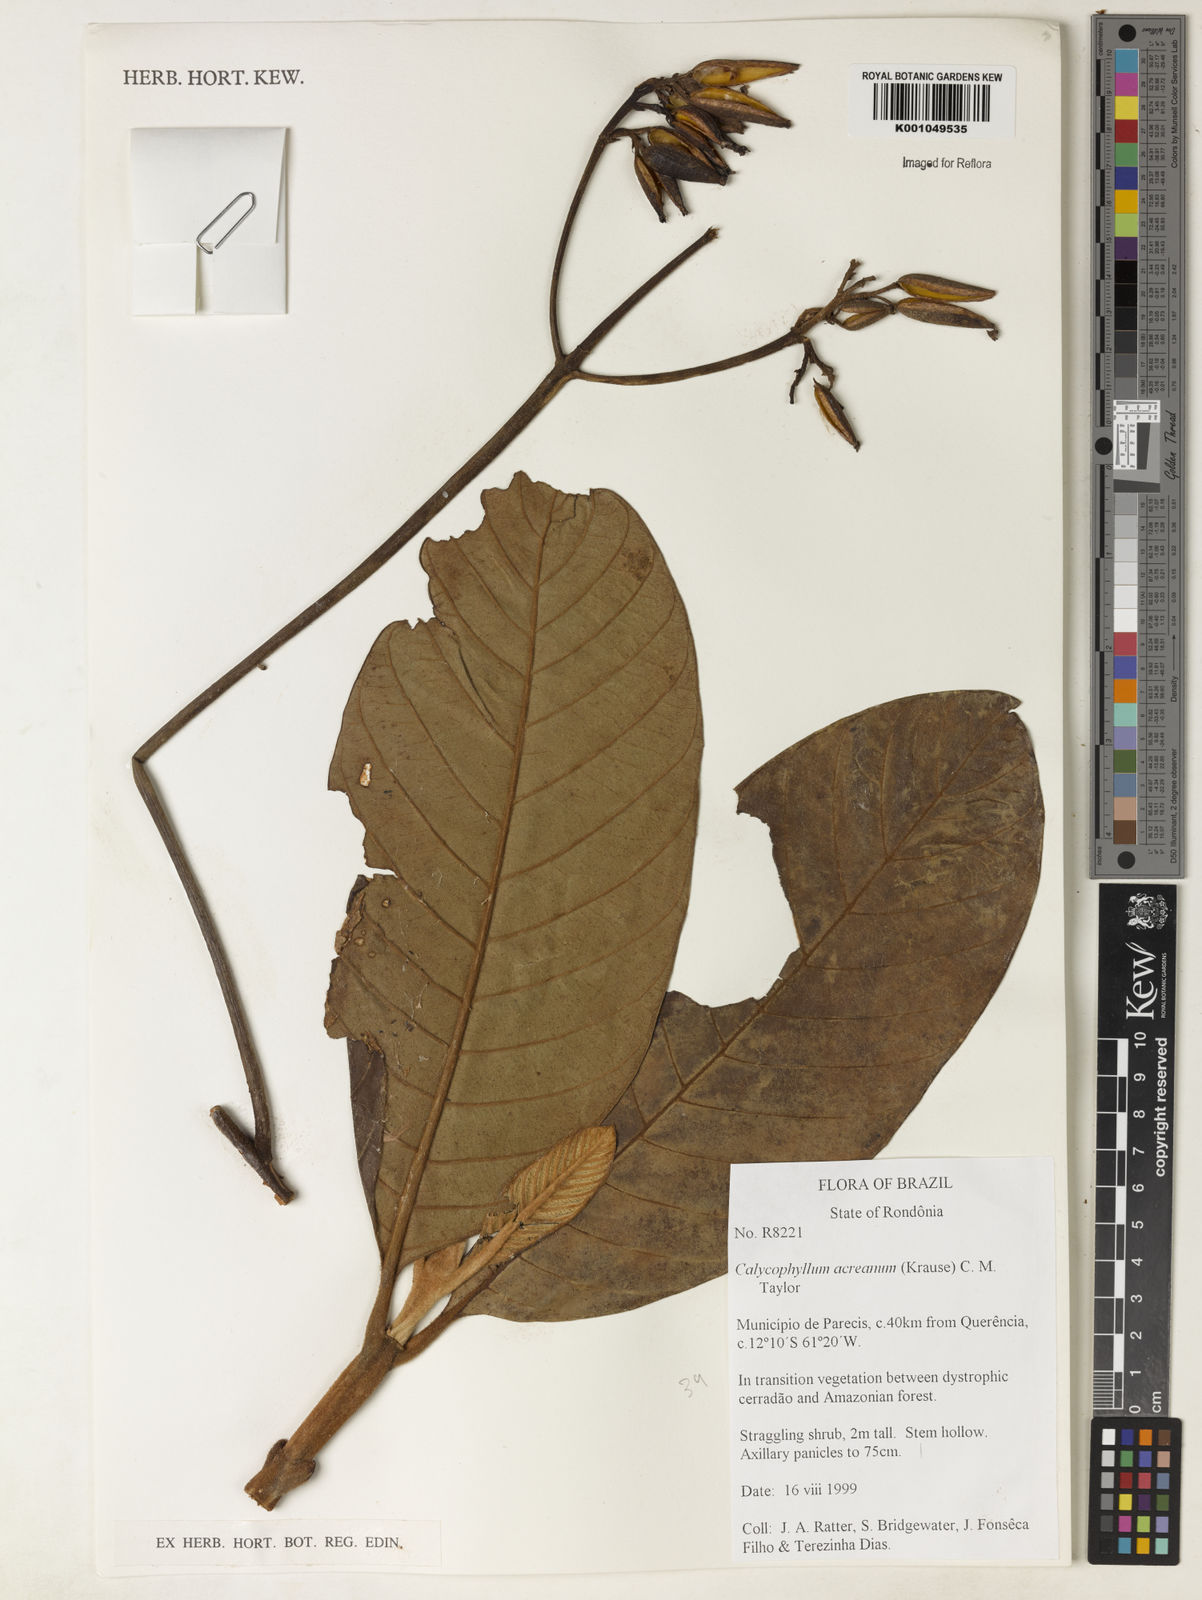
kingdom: Plantae
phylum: Tracheophyta
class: Magnoliopsida
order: Gentianales
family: Rubiaceae
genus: Remijia
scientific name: Remijia
